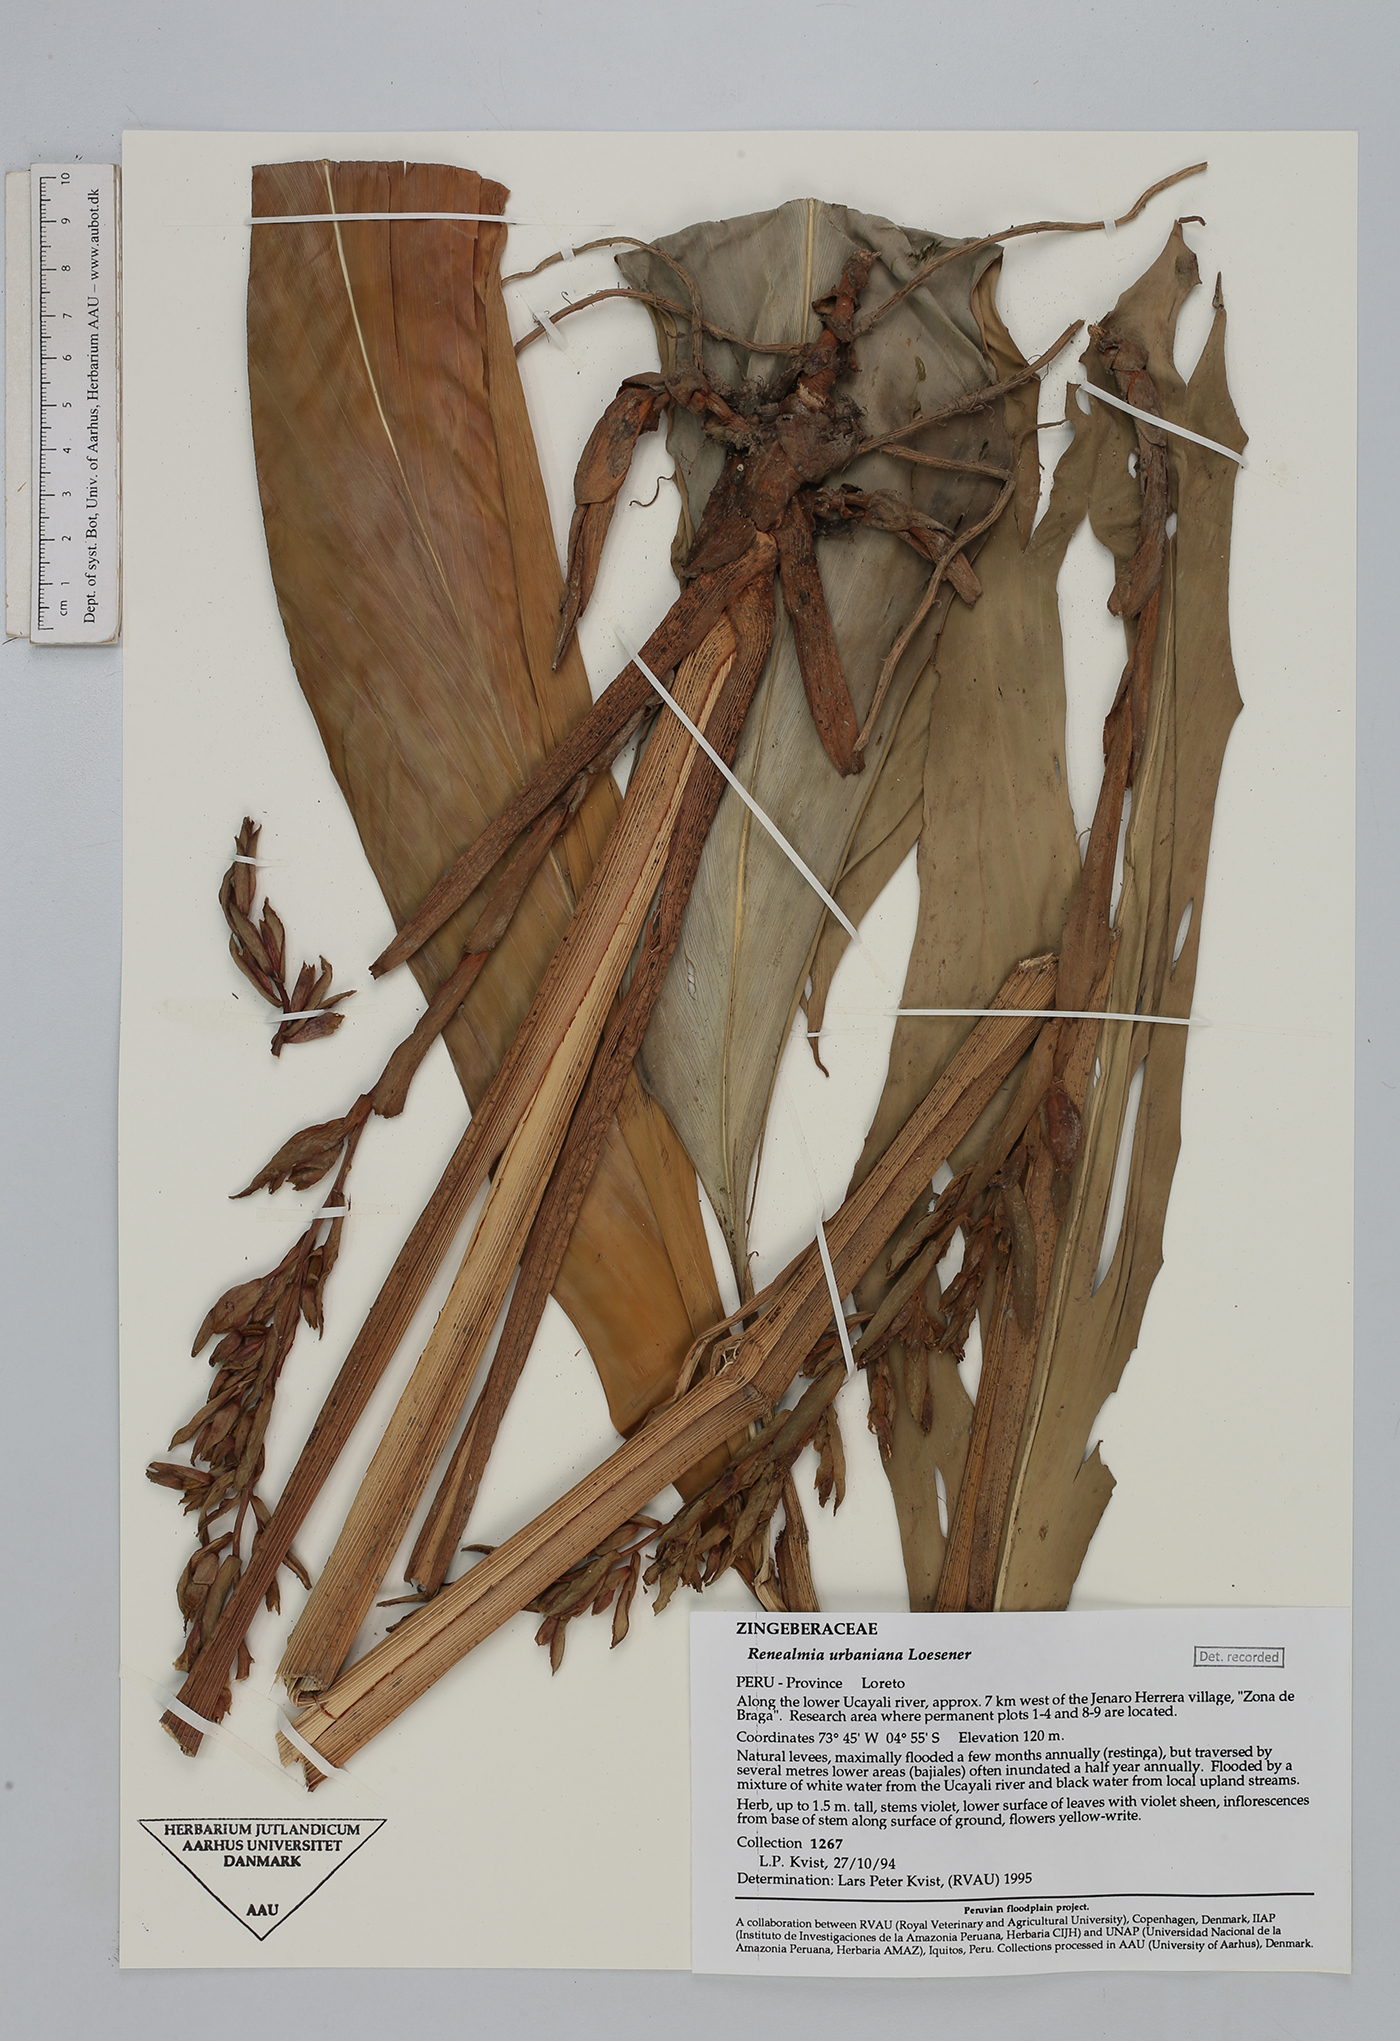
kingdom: Plantae
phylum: Tracheophyta
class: Liliopsida
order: Zingiberales
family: Zingiberaceae
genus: Renealmia
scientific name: Renealmia urbaniana
